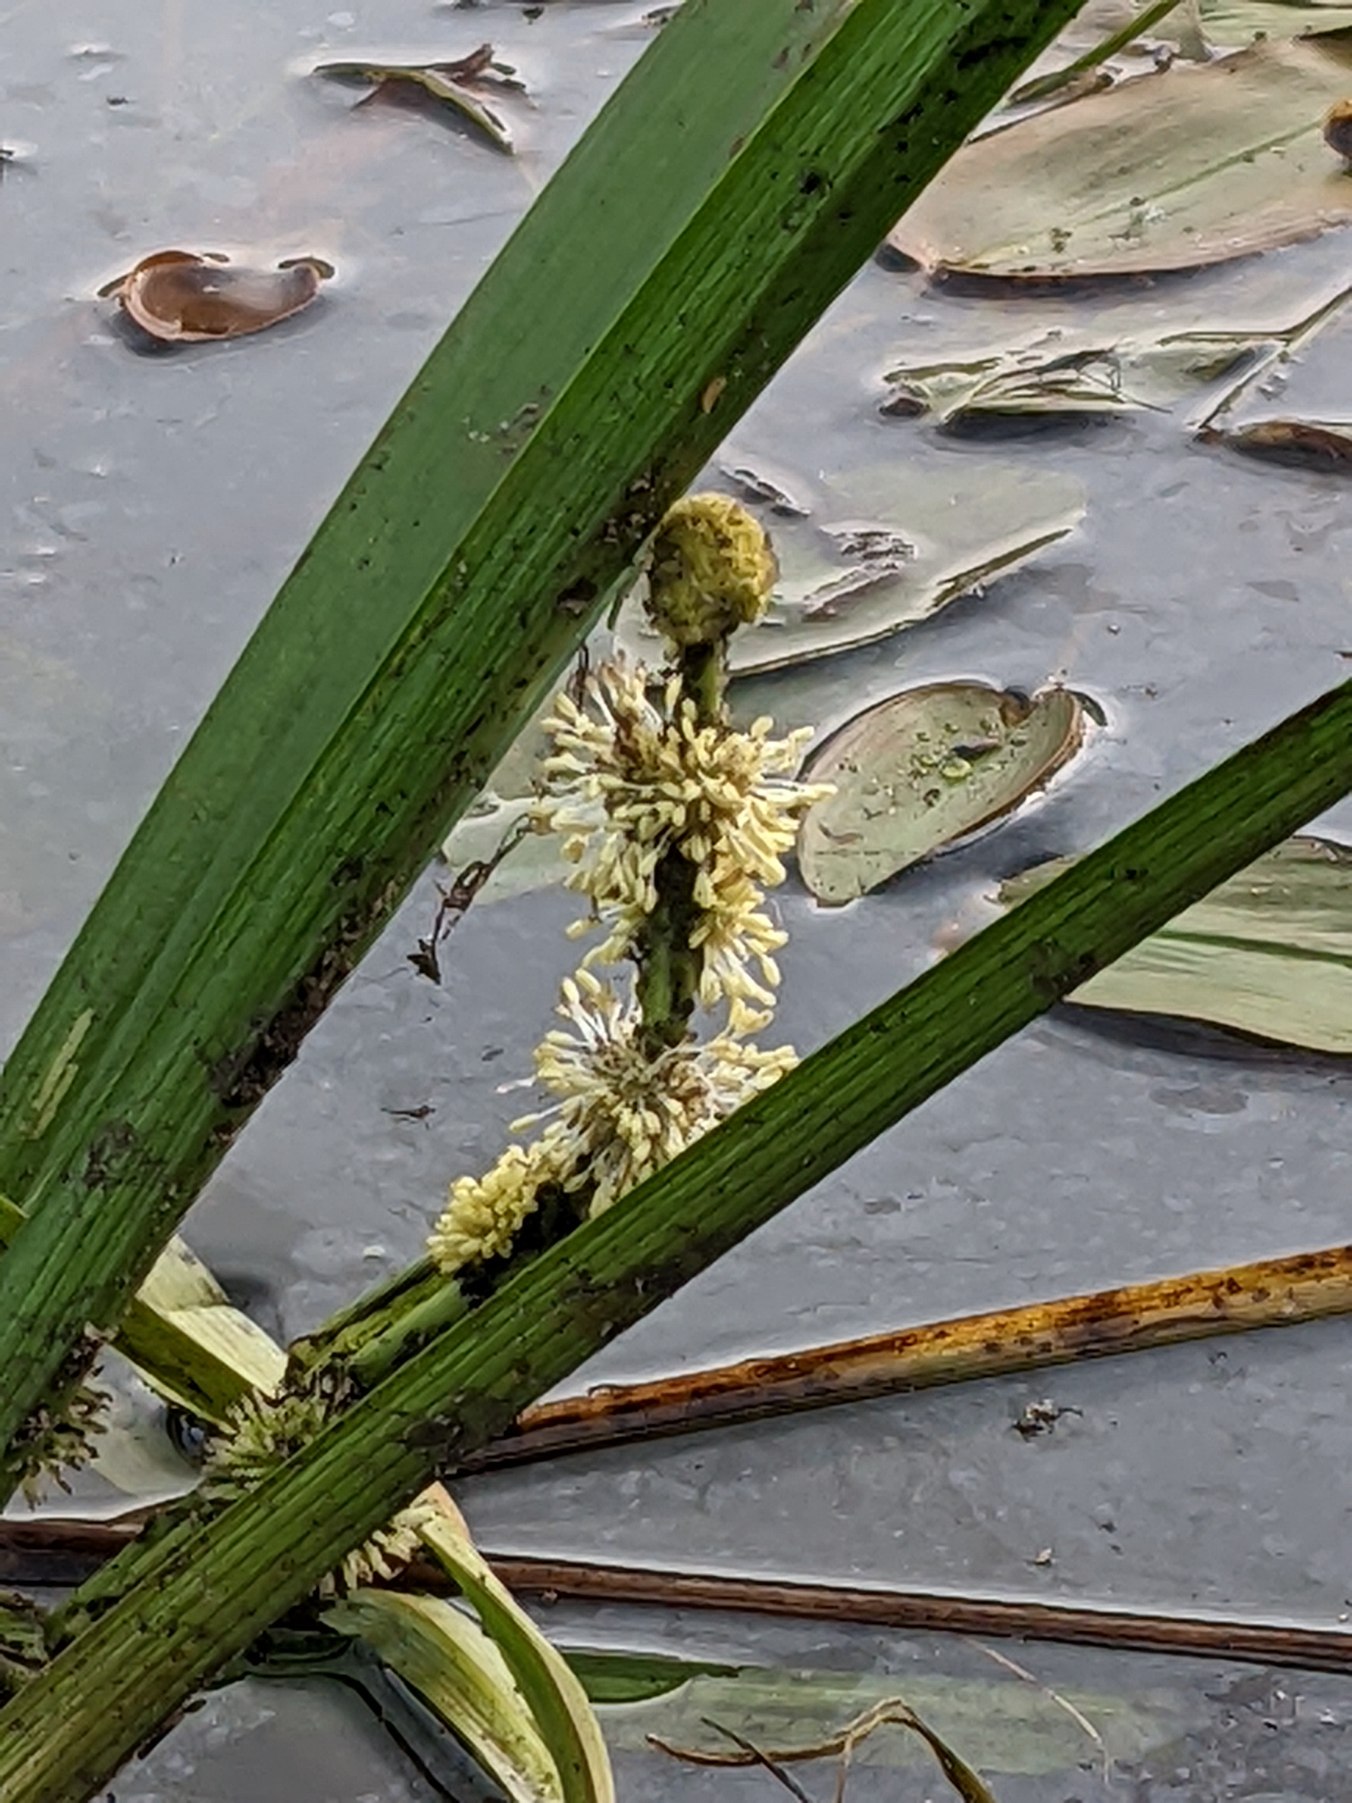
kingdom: Plantae
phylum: Tracheophyta
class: Liliopsida
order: Poales
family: Typhaceae
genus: Sparganium
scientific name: Sparganium
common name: Pindsvineknopslægten
